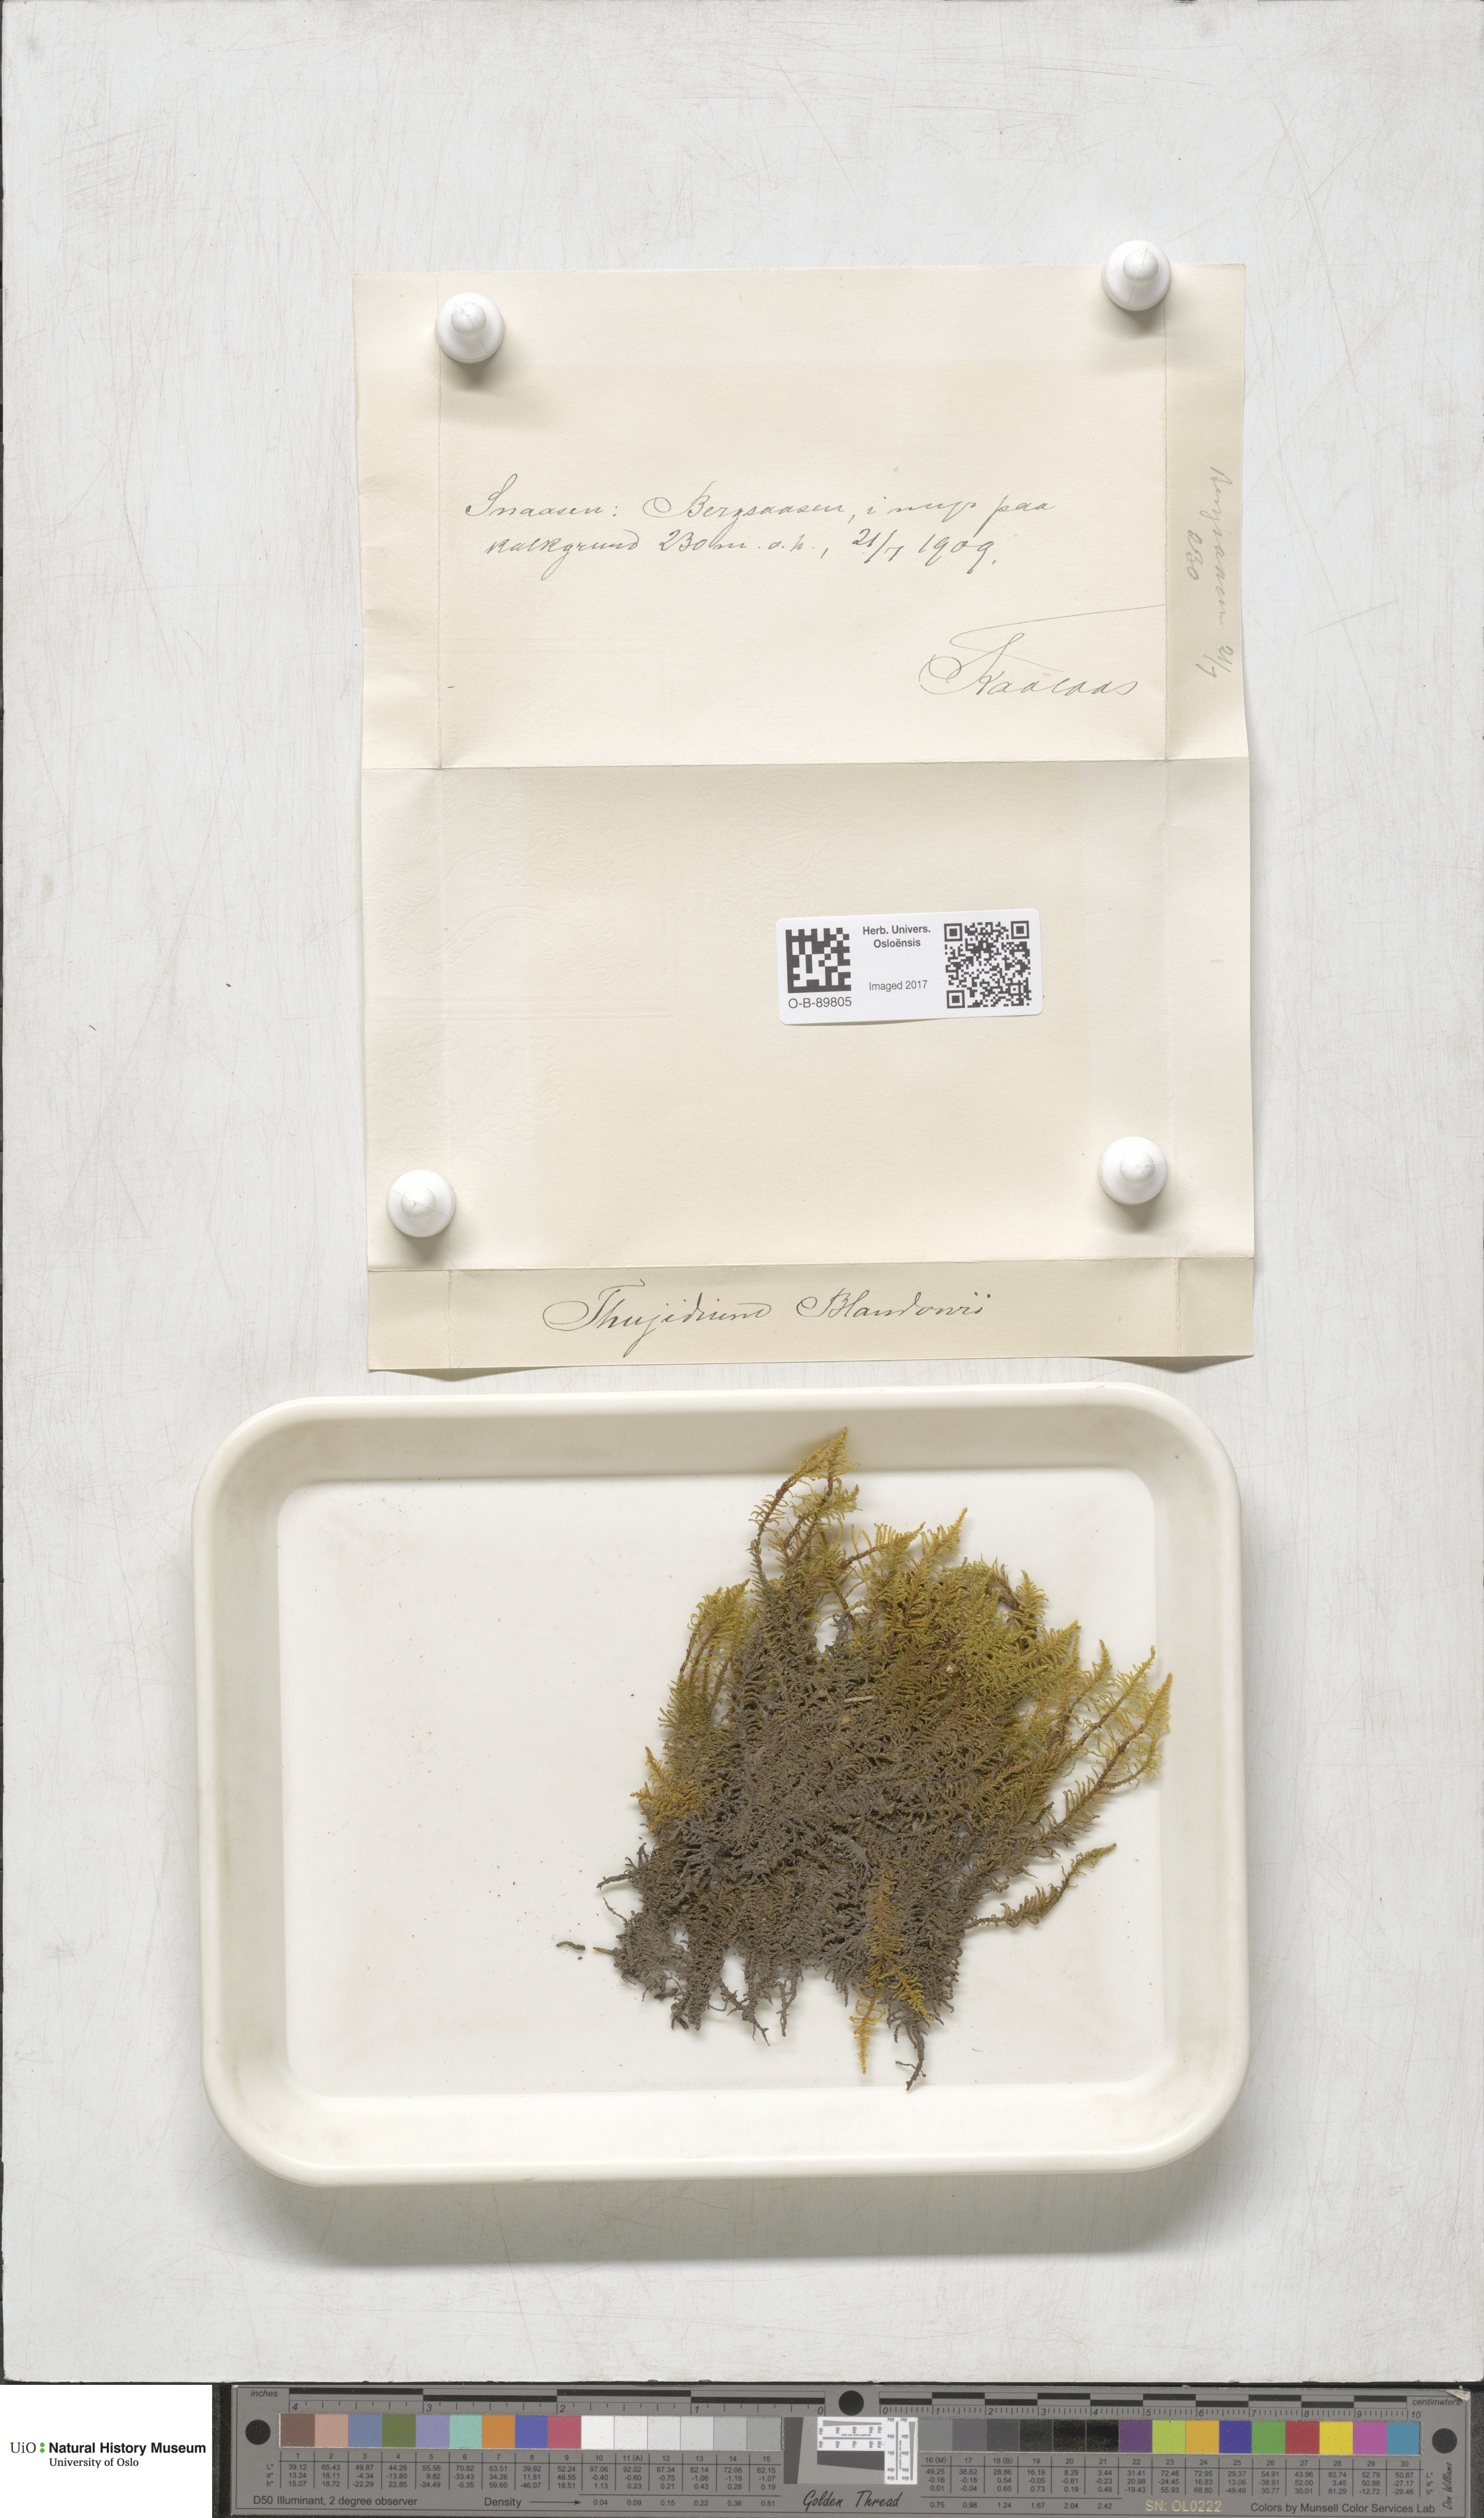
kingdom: Plantae
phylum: Bryophyta
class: Bryopsida
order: Hypnales
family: Helodiaceae
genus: Helodium
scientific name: Helodium blandowii
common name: Blandow's tamarisk-moss
